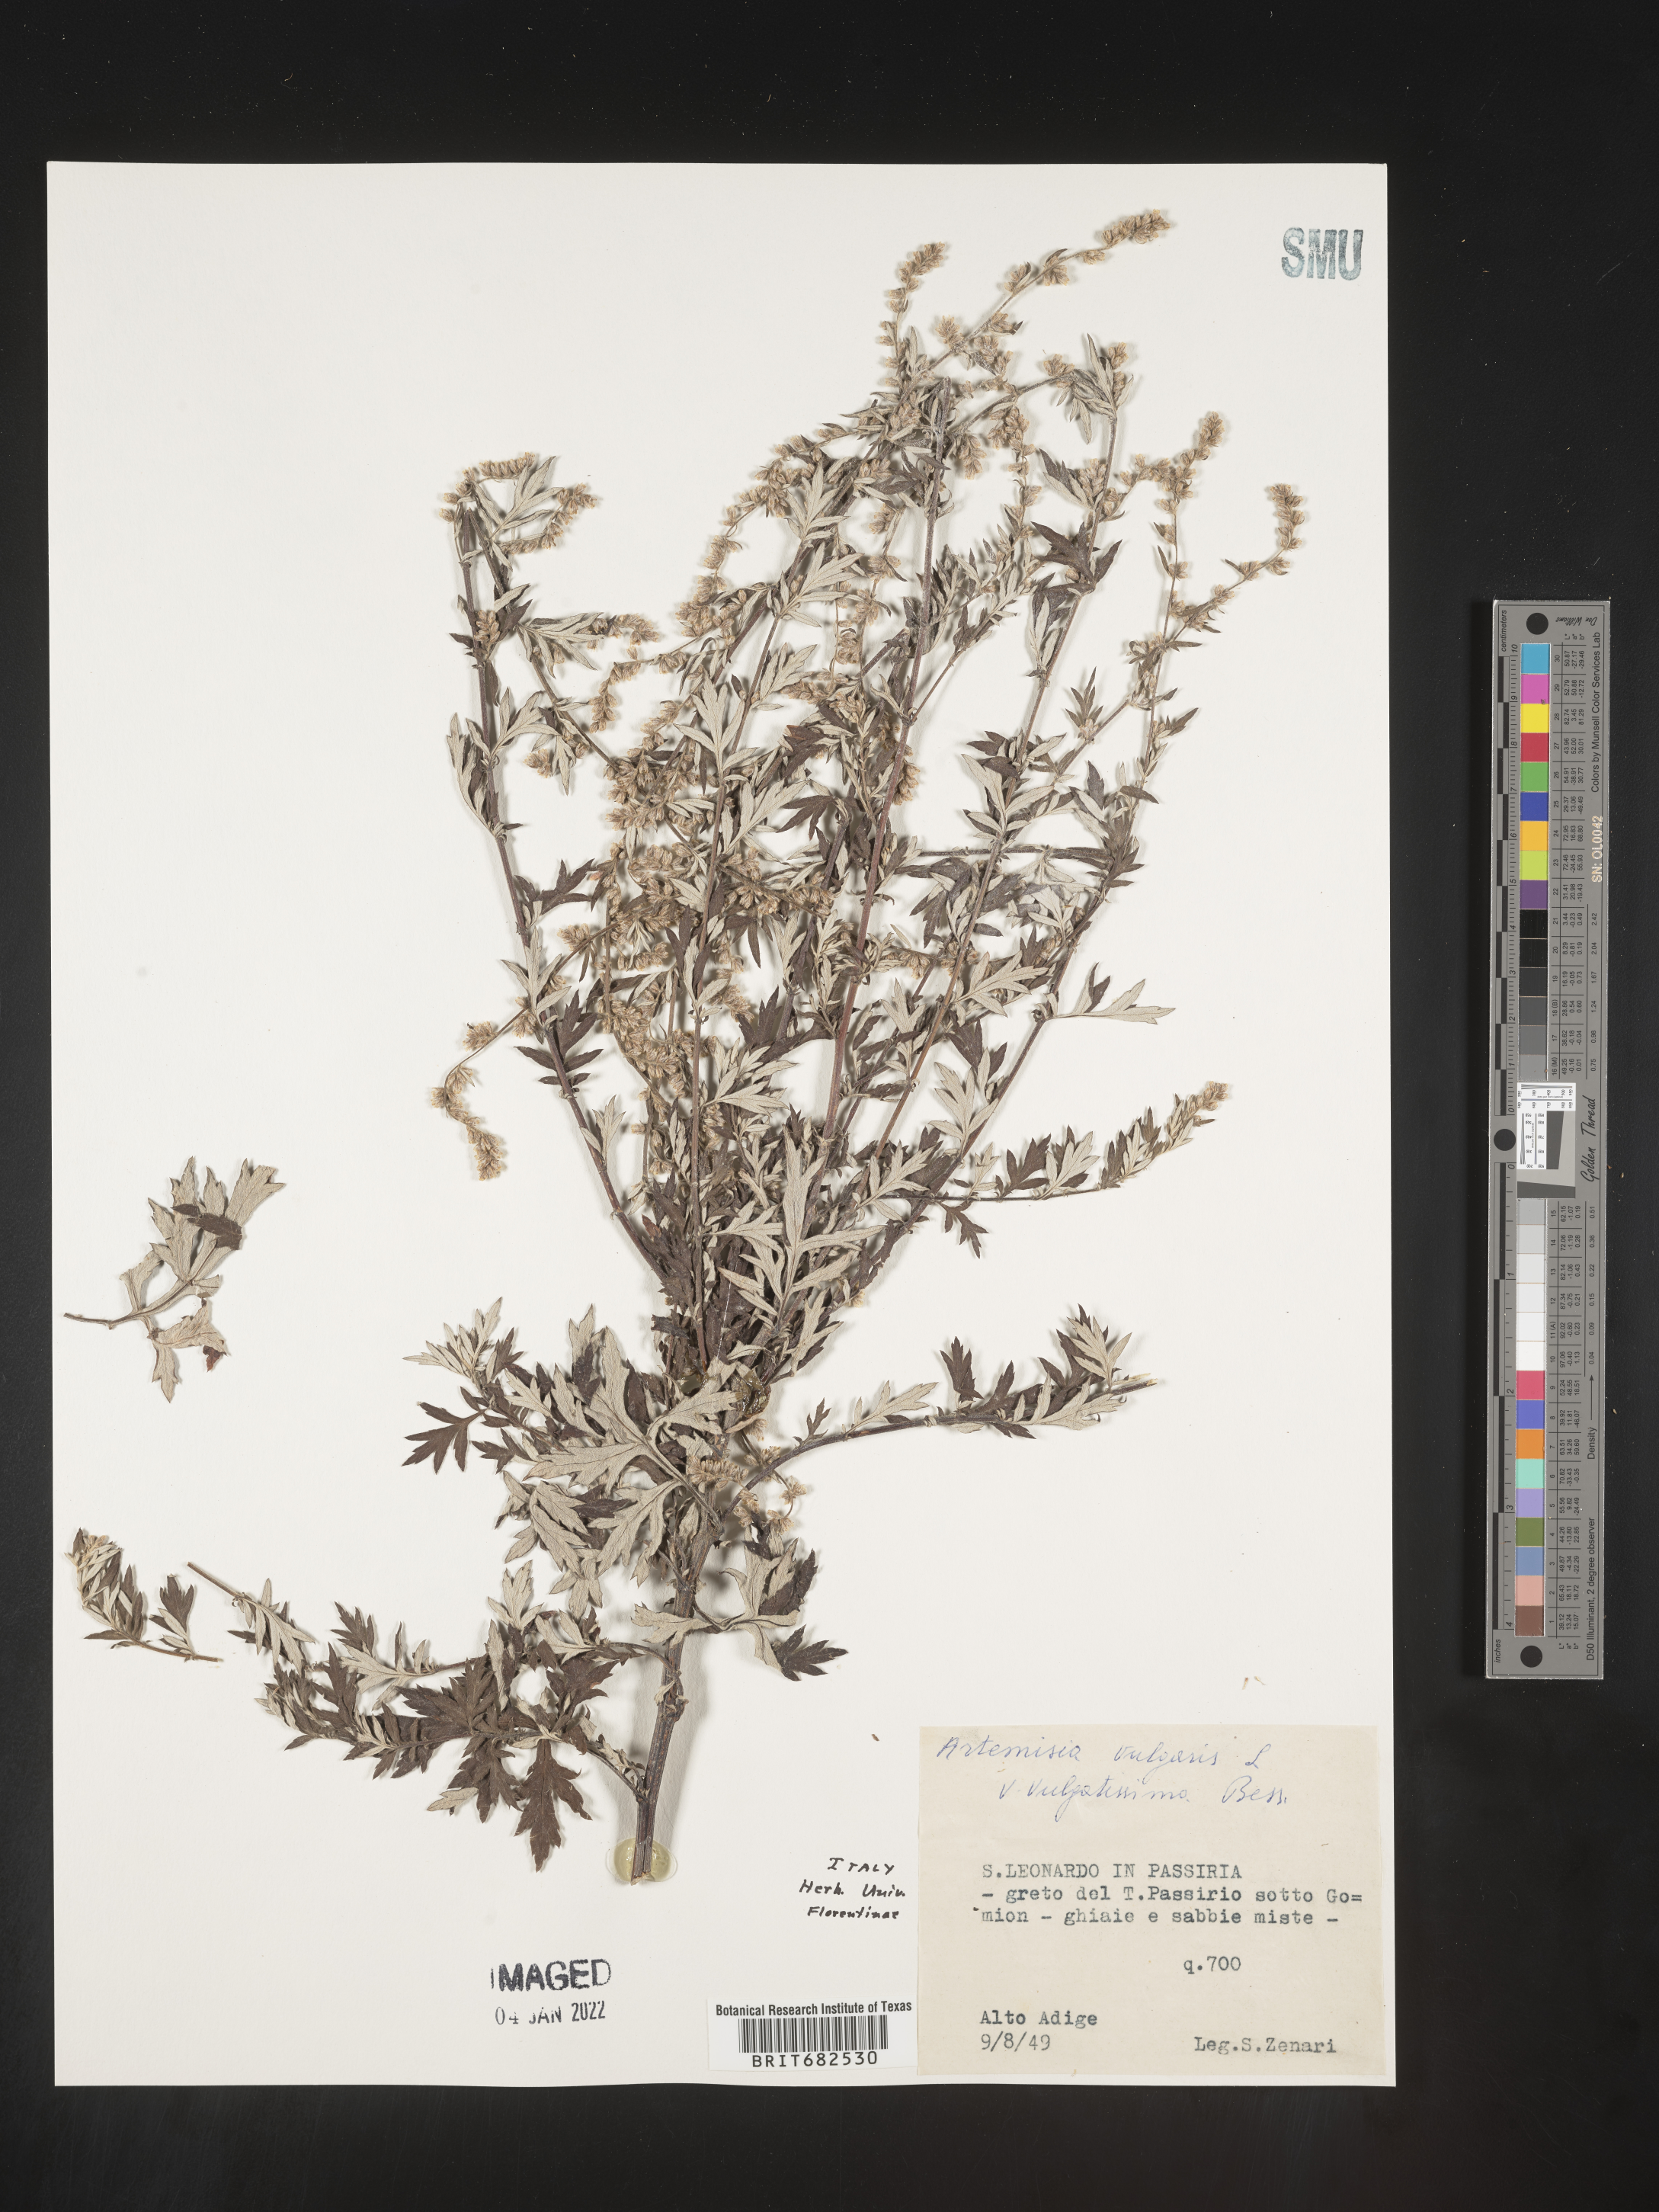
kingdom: Plantae
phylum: Tracheophyta
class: Magnoliopsida
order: Asterales
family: Asteraceae
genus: Artemisia
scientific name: Artemisia
